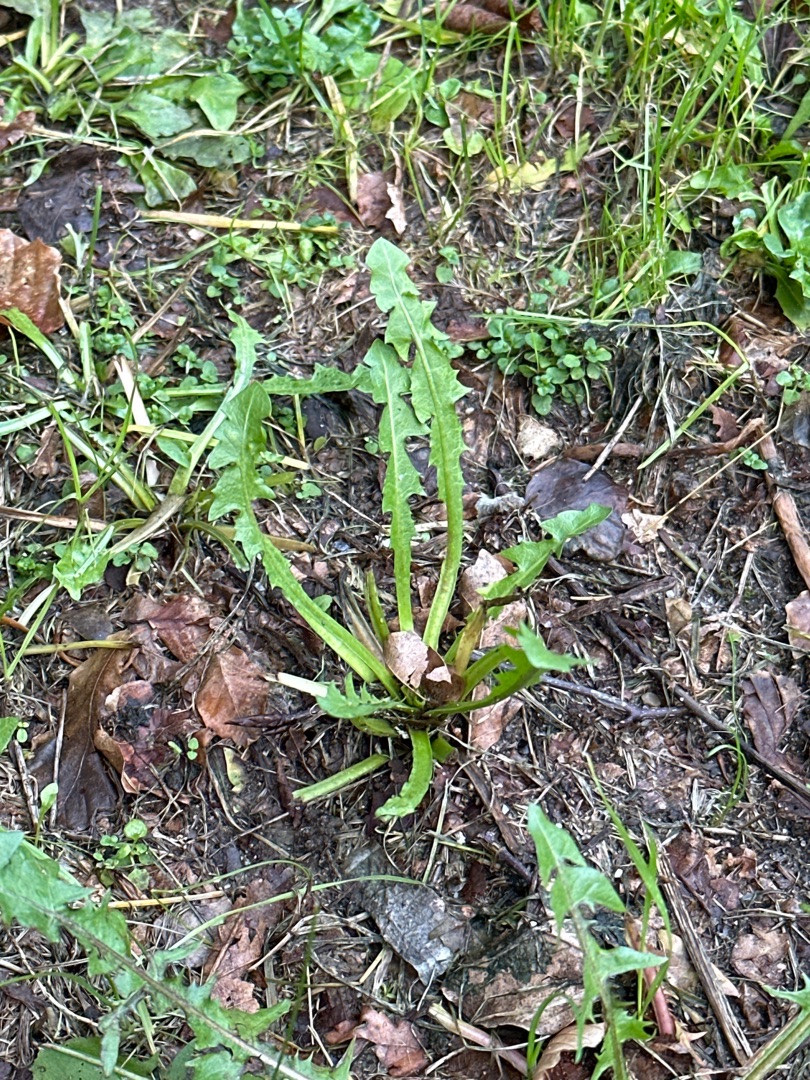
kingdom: Plantae
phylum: Tracheophyta
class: Magnoliopsida
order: Asterales
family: Asteraceae
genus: Taraxacum
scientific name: Taraxacum
